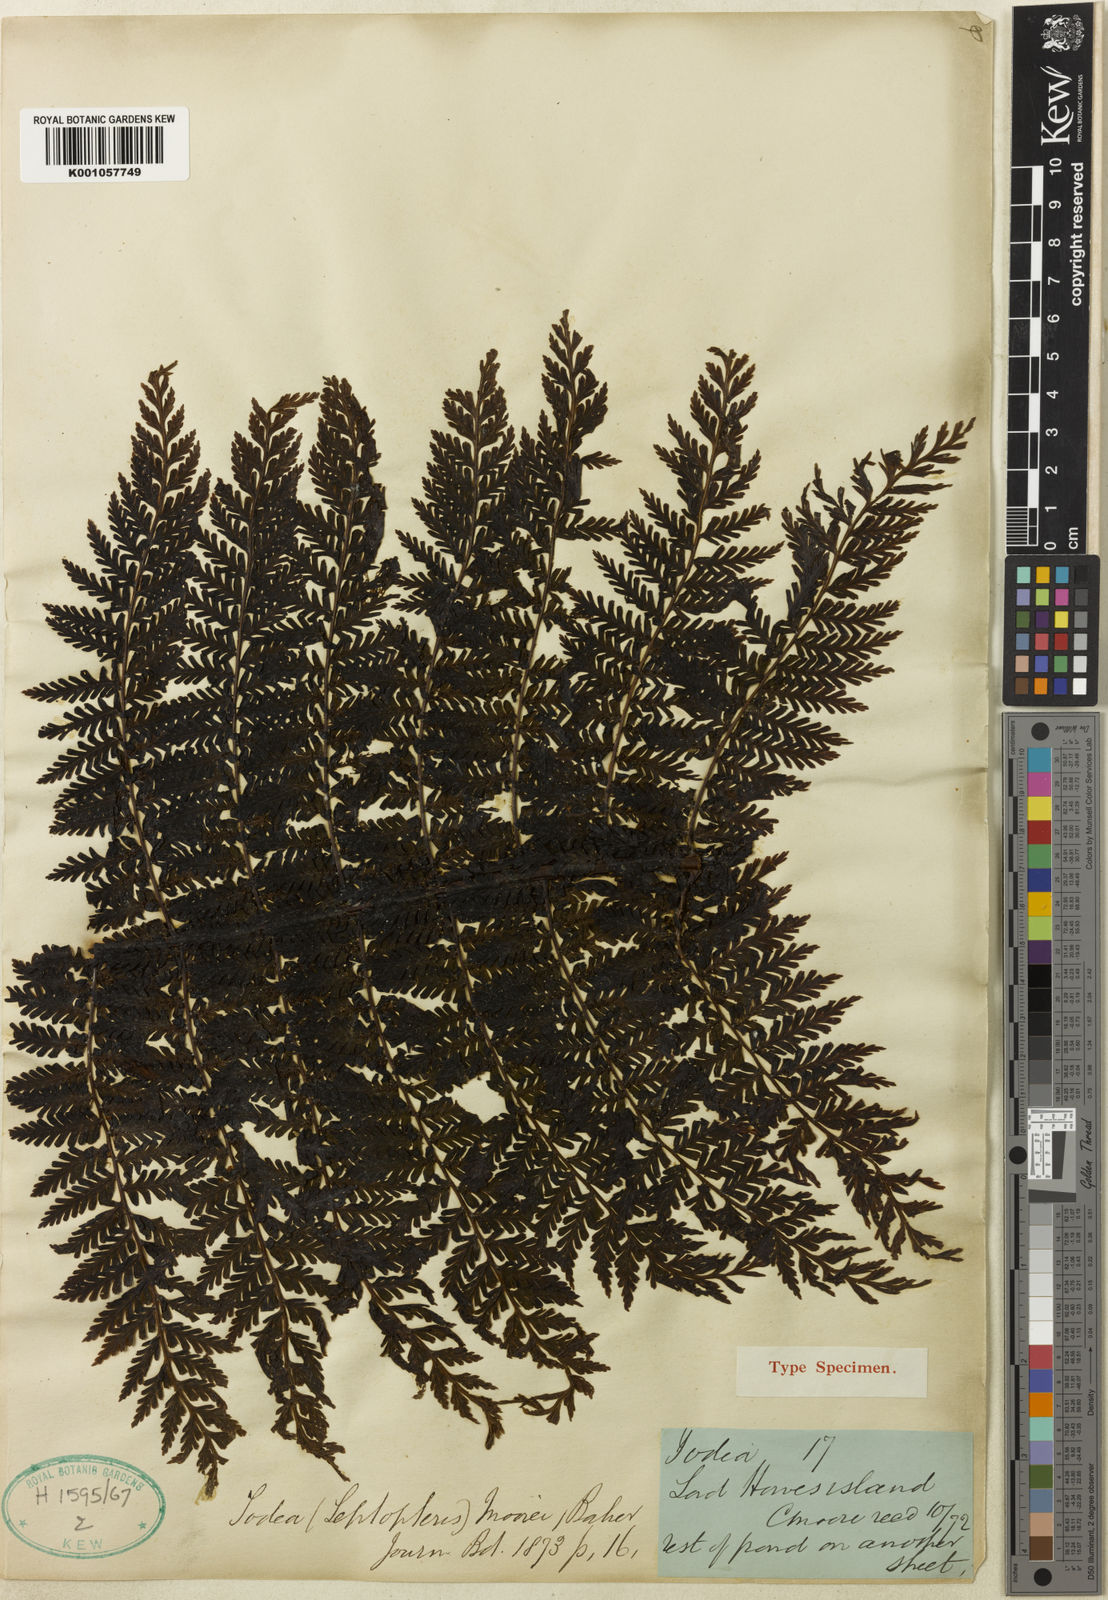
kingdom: Plantae
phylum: Tracheophyta
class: Polypodiopsida
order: Osmundales
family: Osmundaceae
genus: Leptopteris
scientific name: Leptopteris moorei
